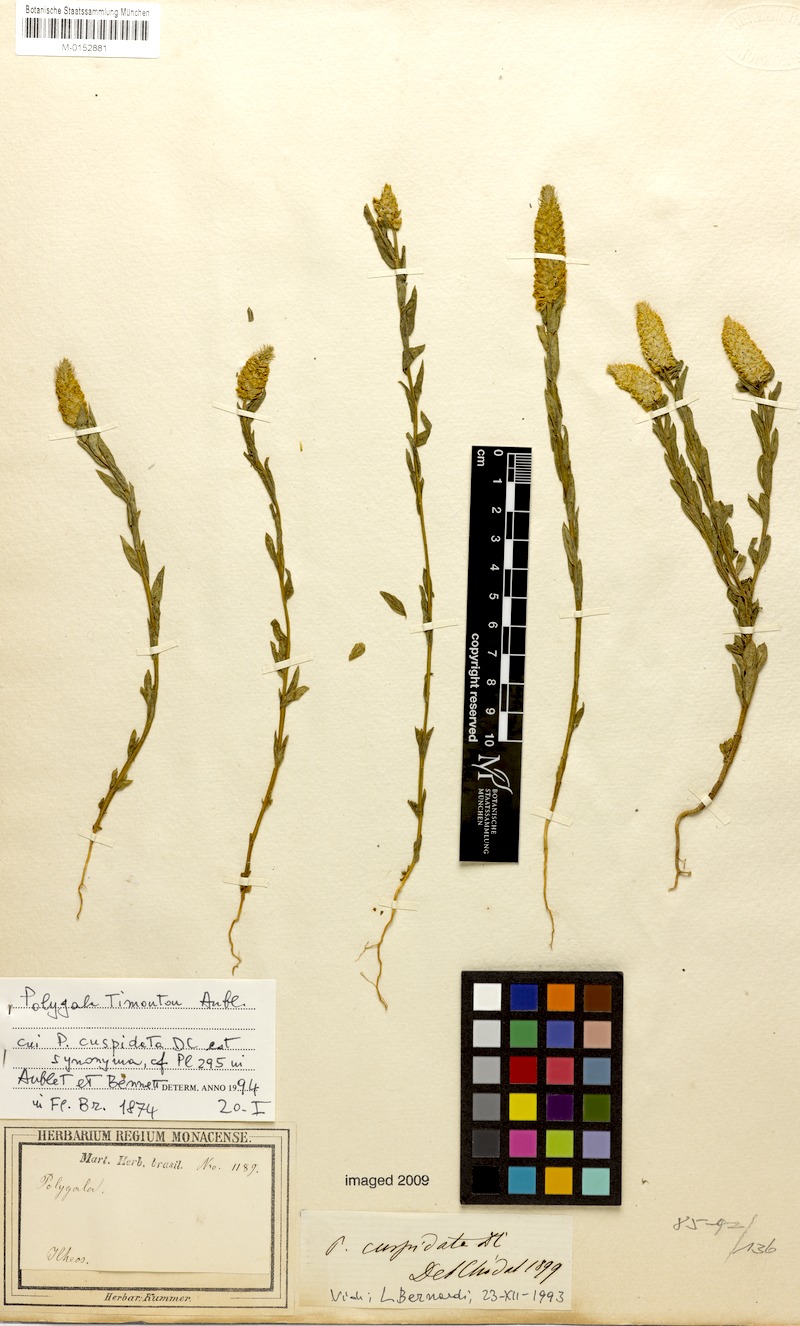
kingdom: Plantae
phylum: Tracheophyta
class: Magnoliopsida
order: Fabales
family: Polygalaceae
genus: Polygala
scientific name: Polygala timoutou
